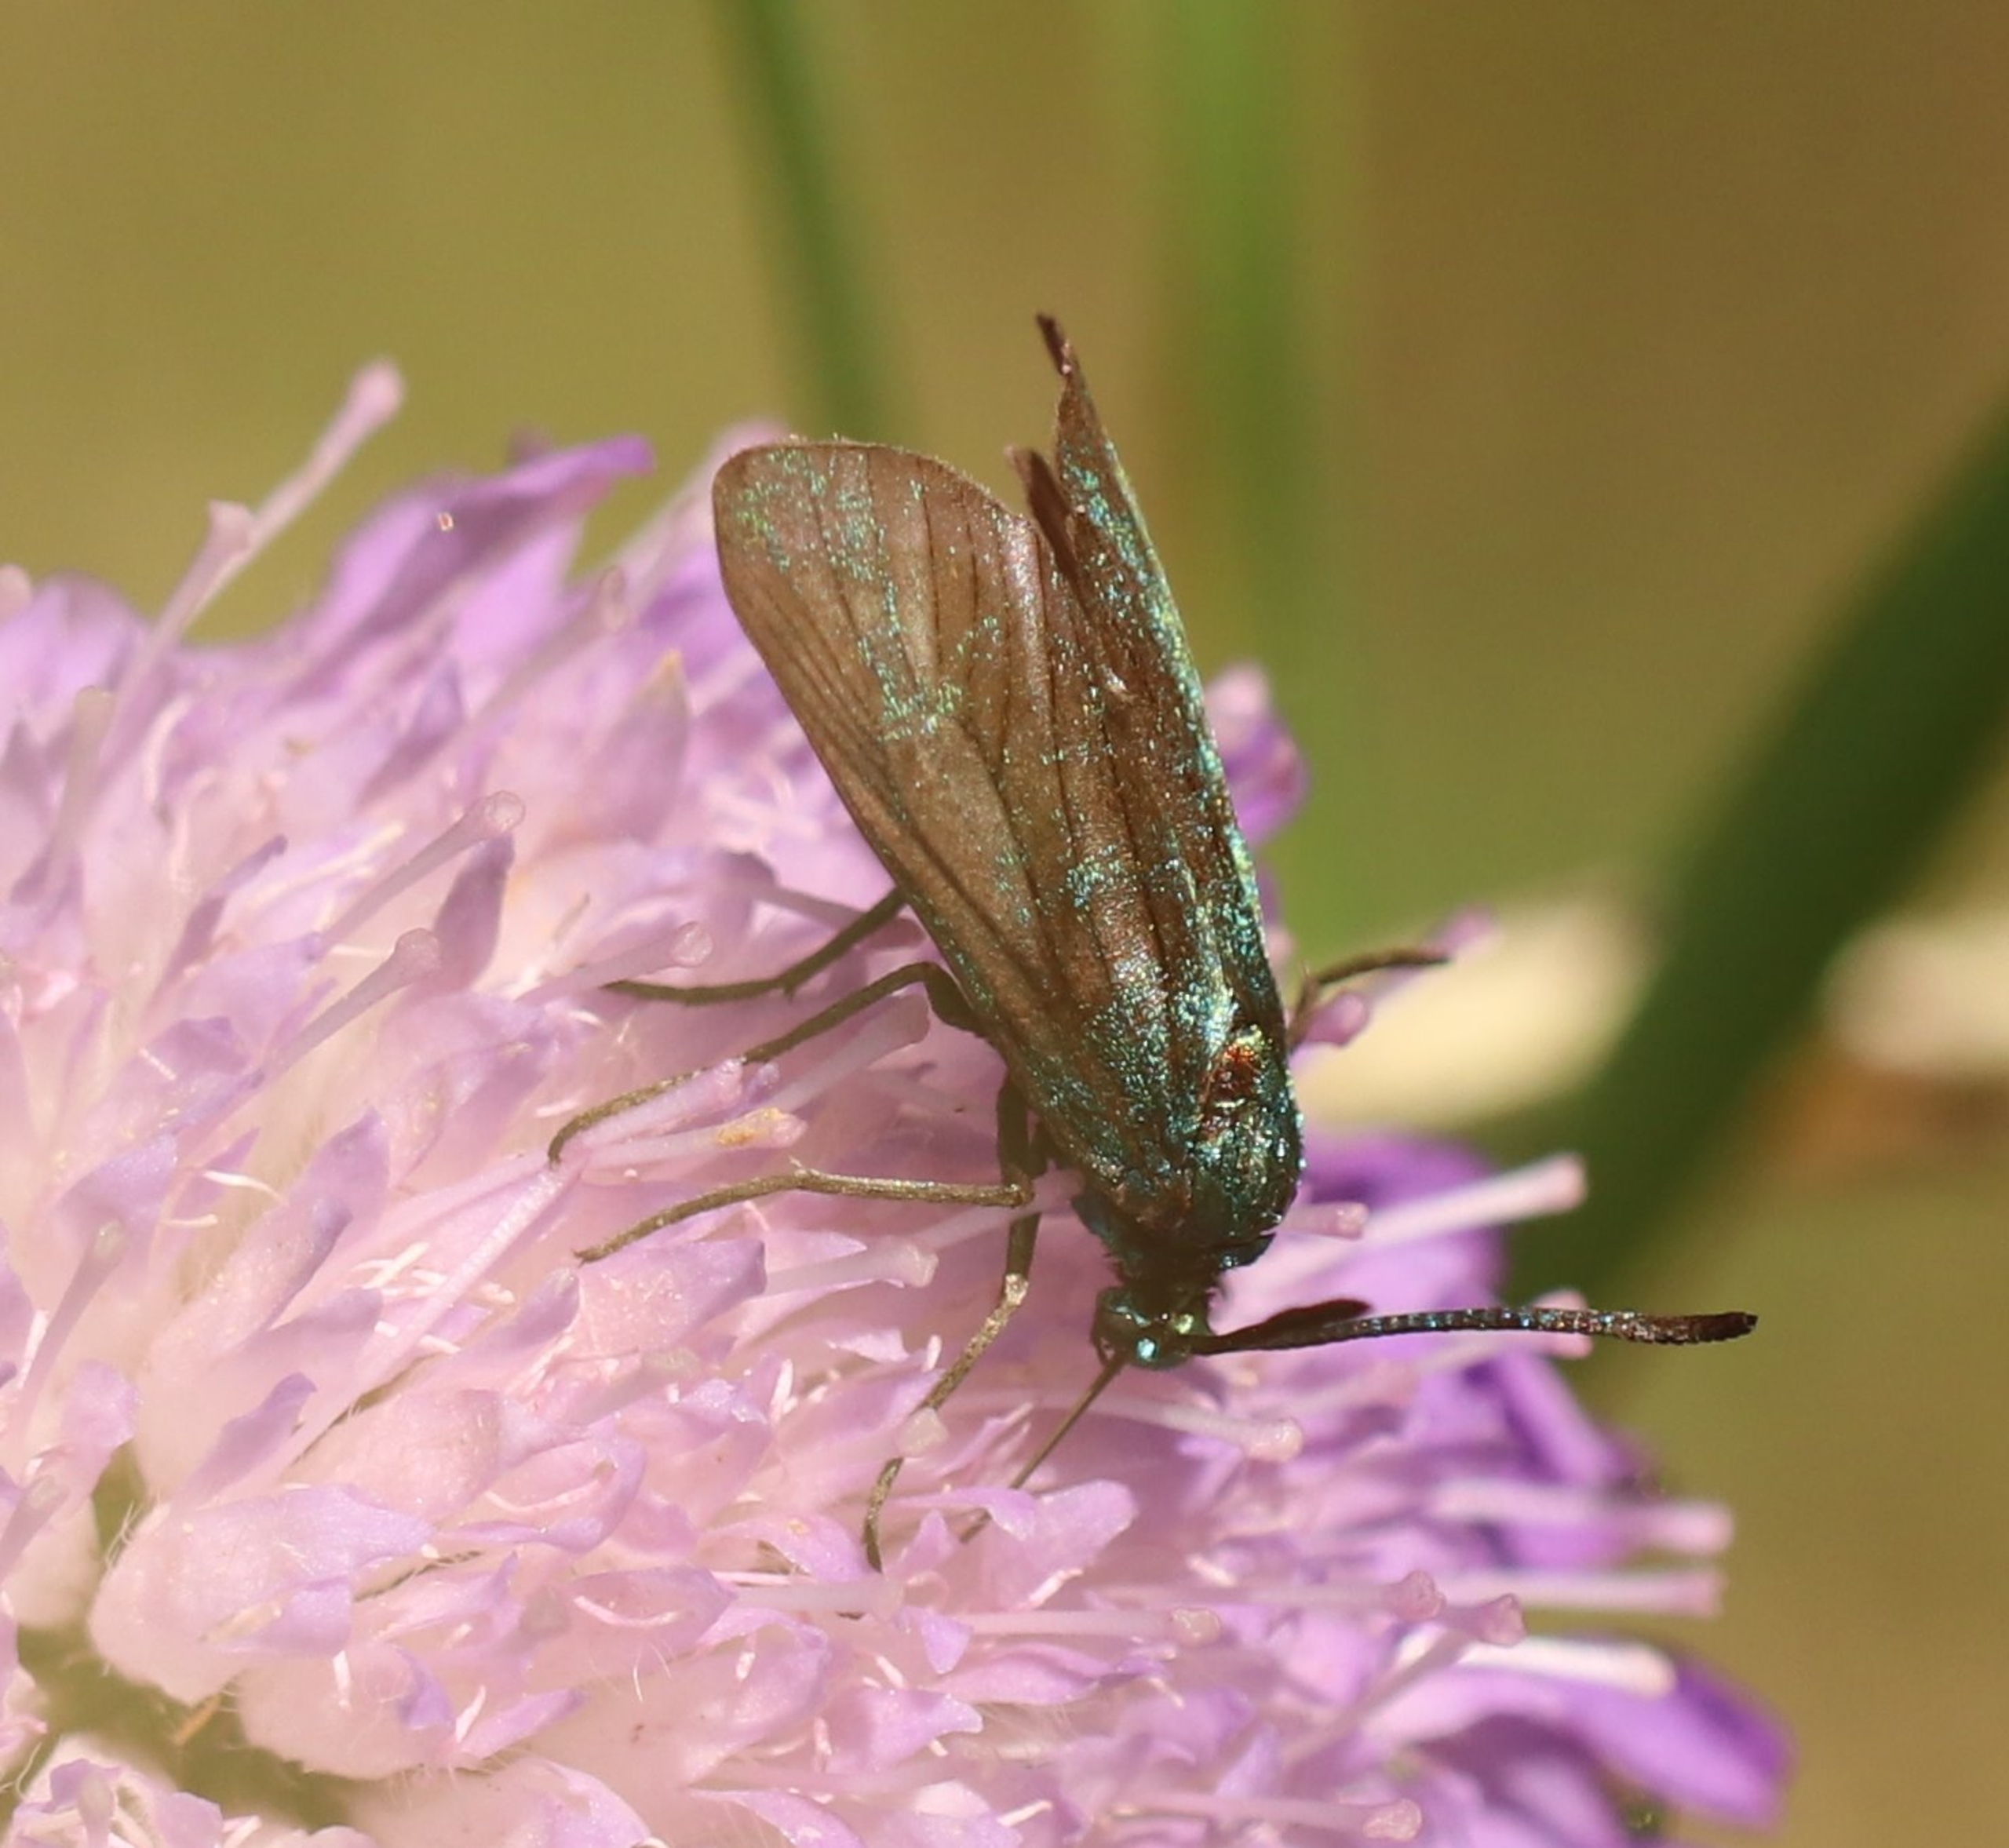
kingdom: Animalia
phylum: Arthropoda
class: Insecta
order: Lepidoptera
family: Zygaenidae
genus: Adscita
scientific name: Adscita statices
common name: Metalvinge
